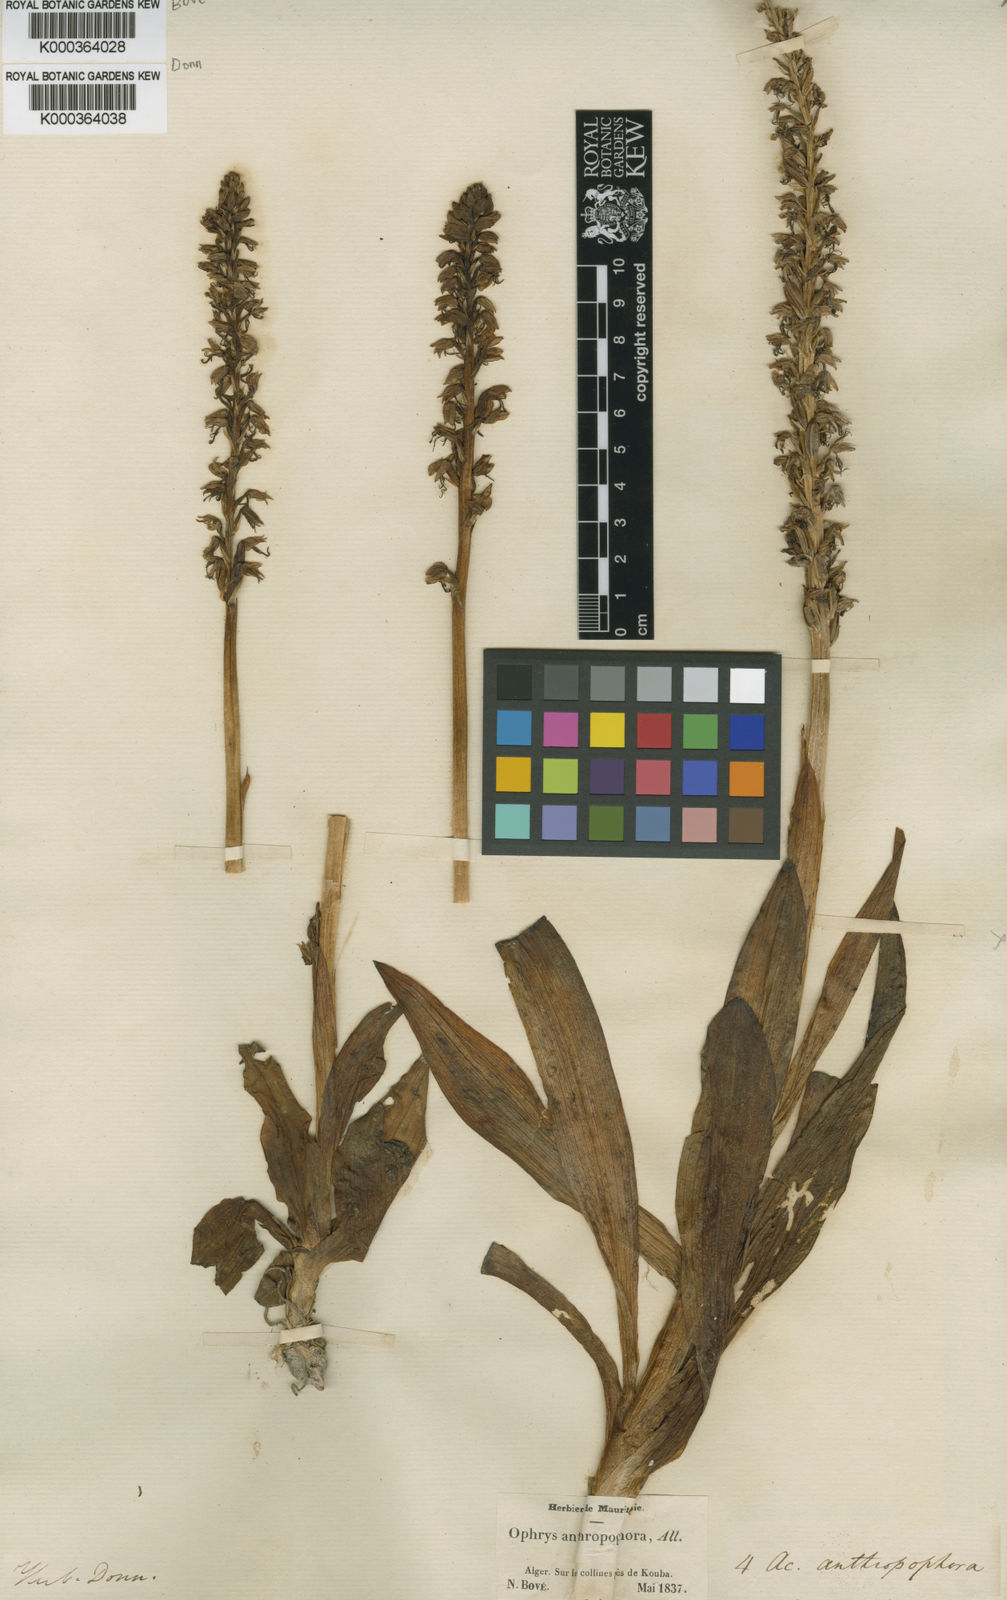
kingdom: Plantae
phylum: Tracheophyta
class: Liliopsida
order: Asparagales
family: Orchidaceae
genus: Orchis
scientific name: Orchis
